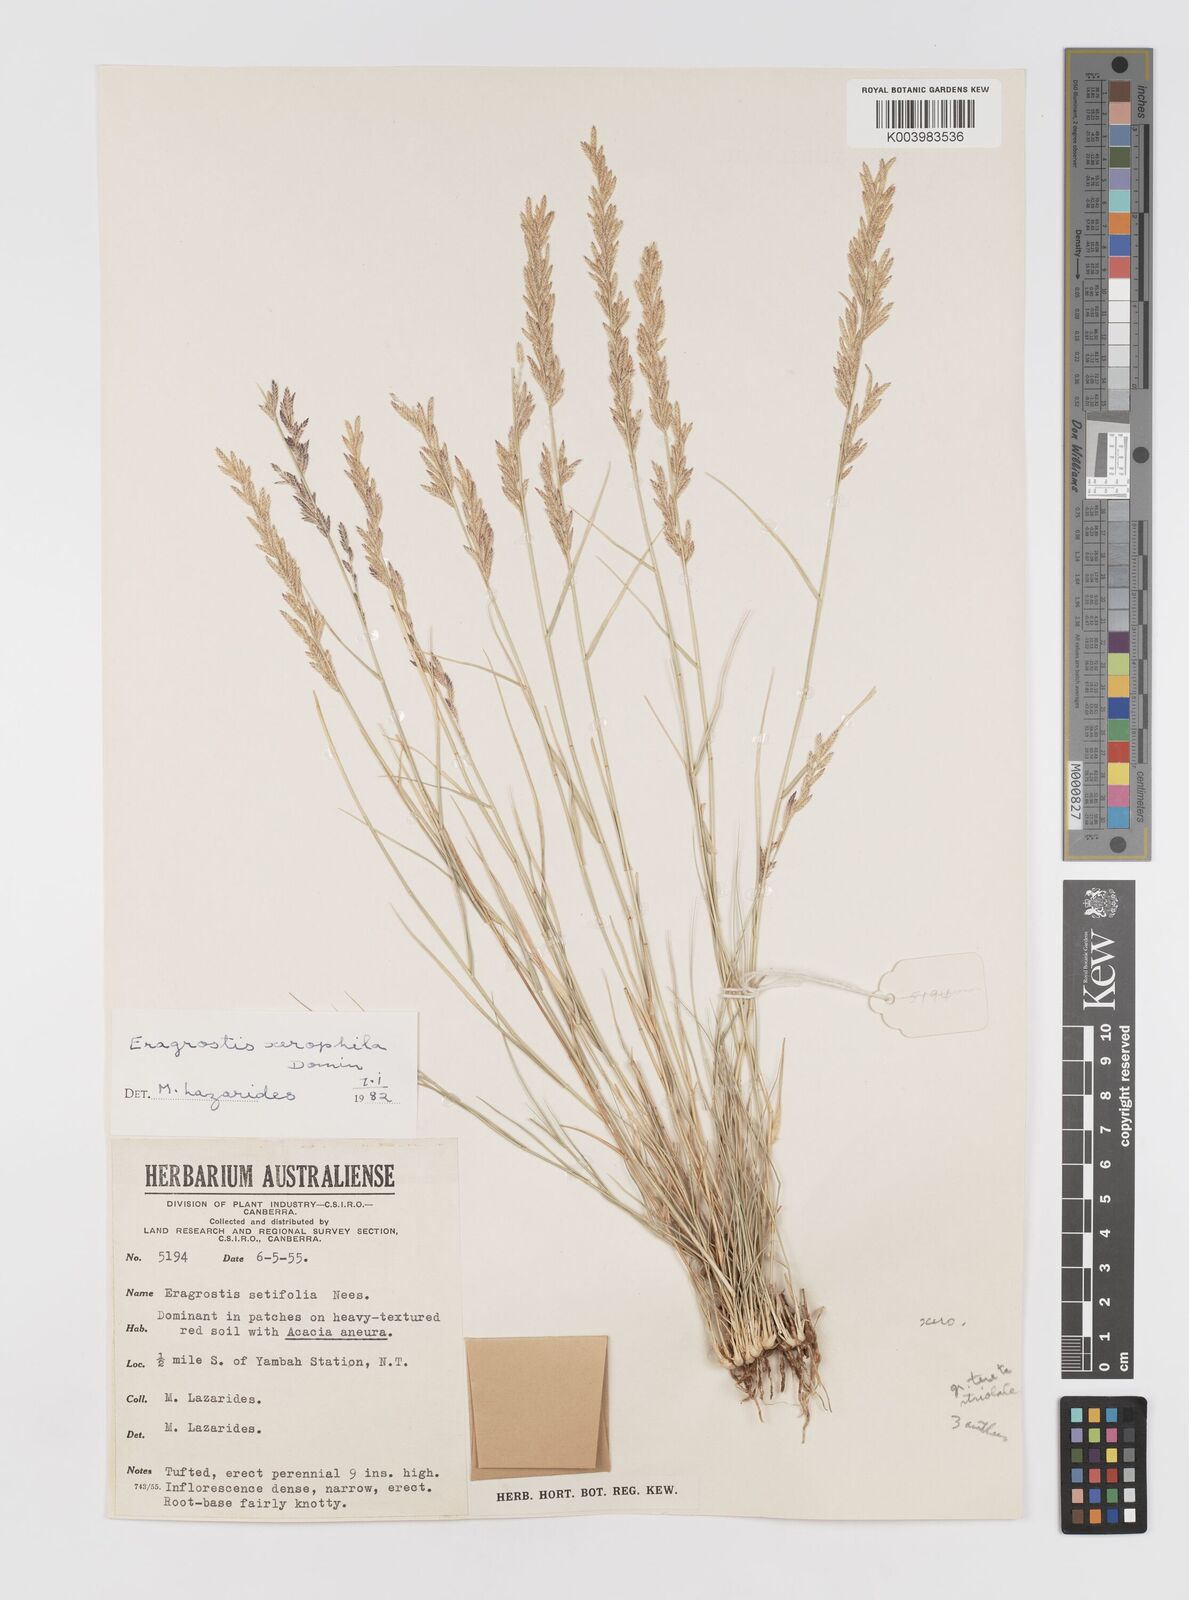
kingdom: Plantae
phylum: Tracheophyta
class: Liliopsida
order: Poales
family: Poaceae
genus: Eragrostis
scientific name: Eragrostis xerophila
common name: Wire wandarrie grass
